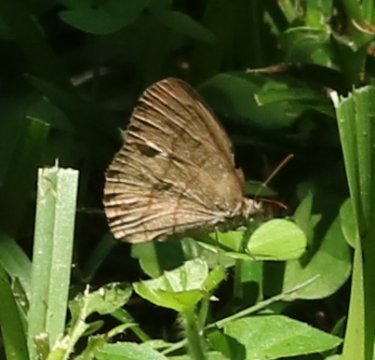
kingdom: Animalia
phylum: Arthropoda
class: Insecta
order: Lepidoptera
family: Nymphalidae
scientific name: Nymphalidae
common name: Brushfoots
